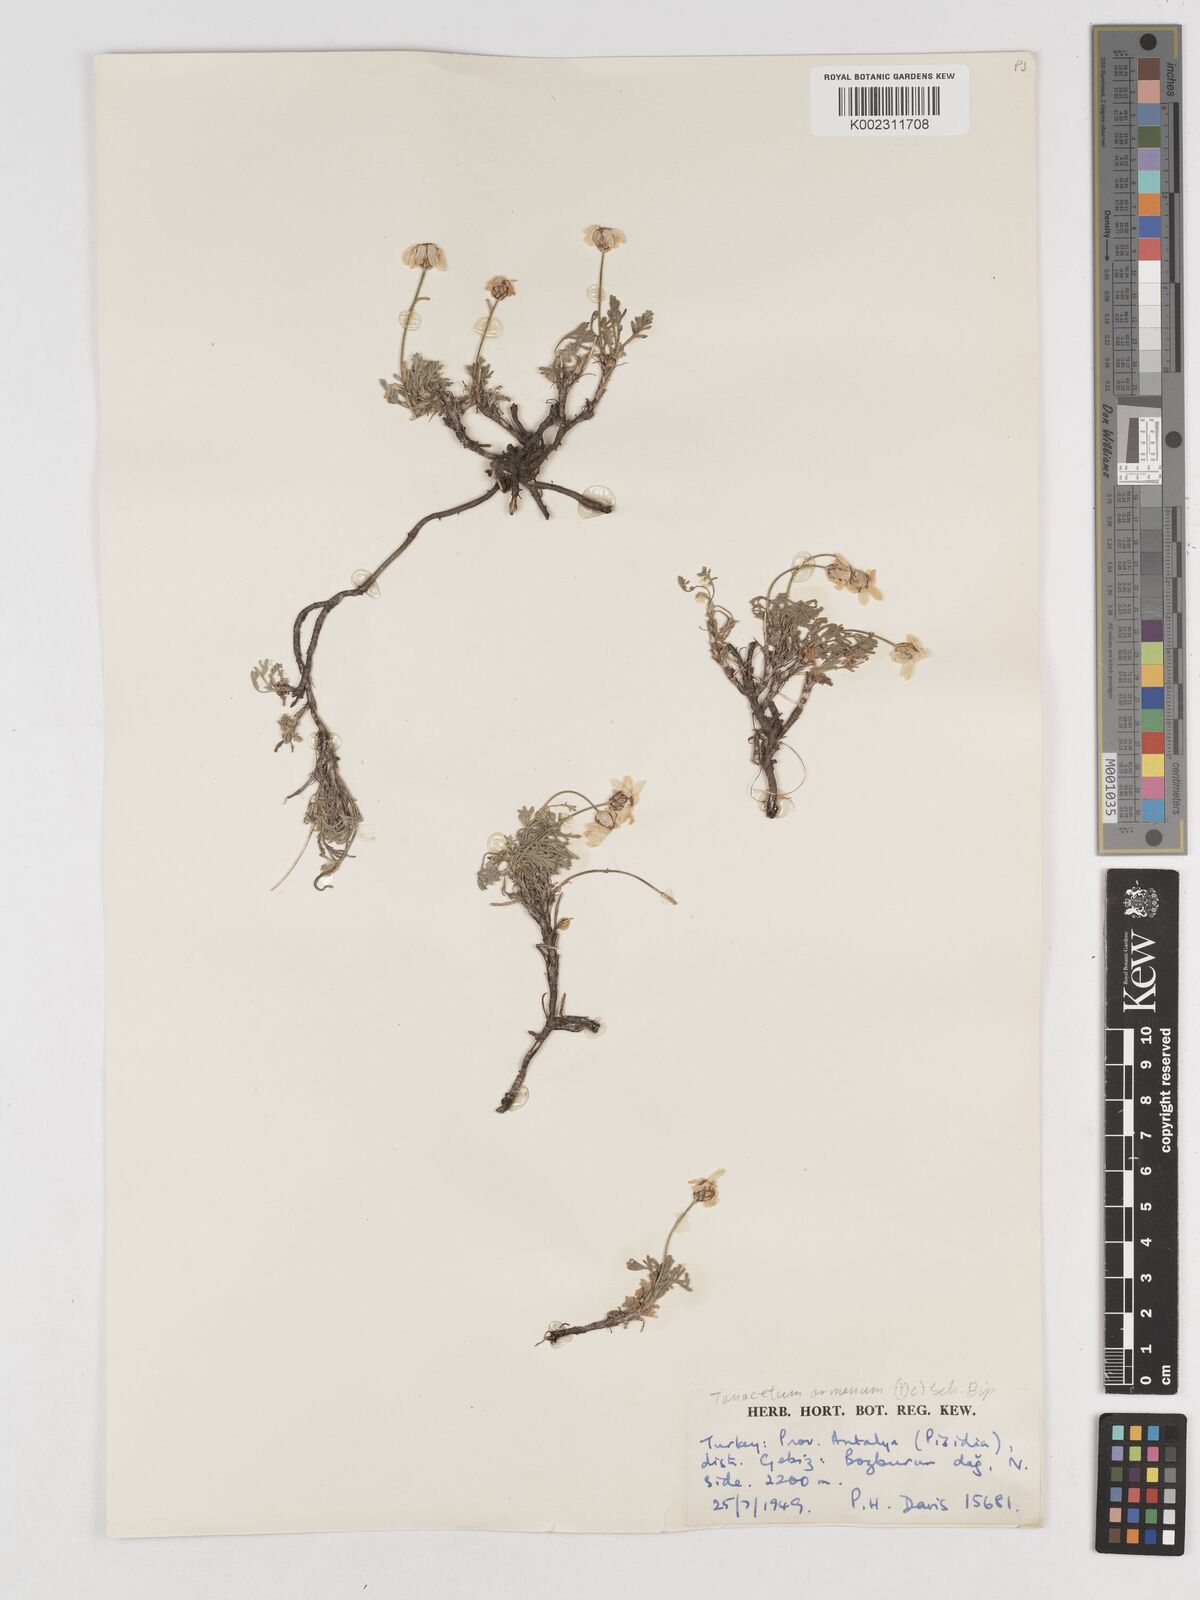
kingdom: Plantae
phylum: Tracheophyta
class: Magnoliopsida
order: Asterales
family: Asteraceae
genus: Tanacetum
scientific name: Tanacetum armenum
